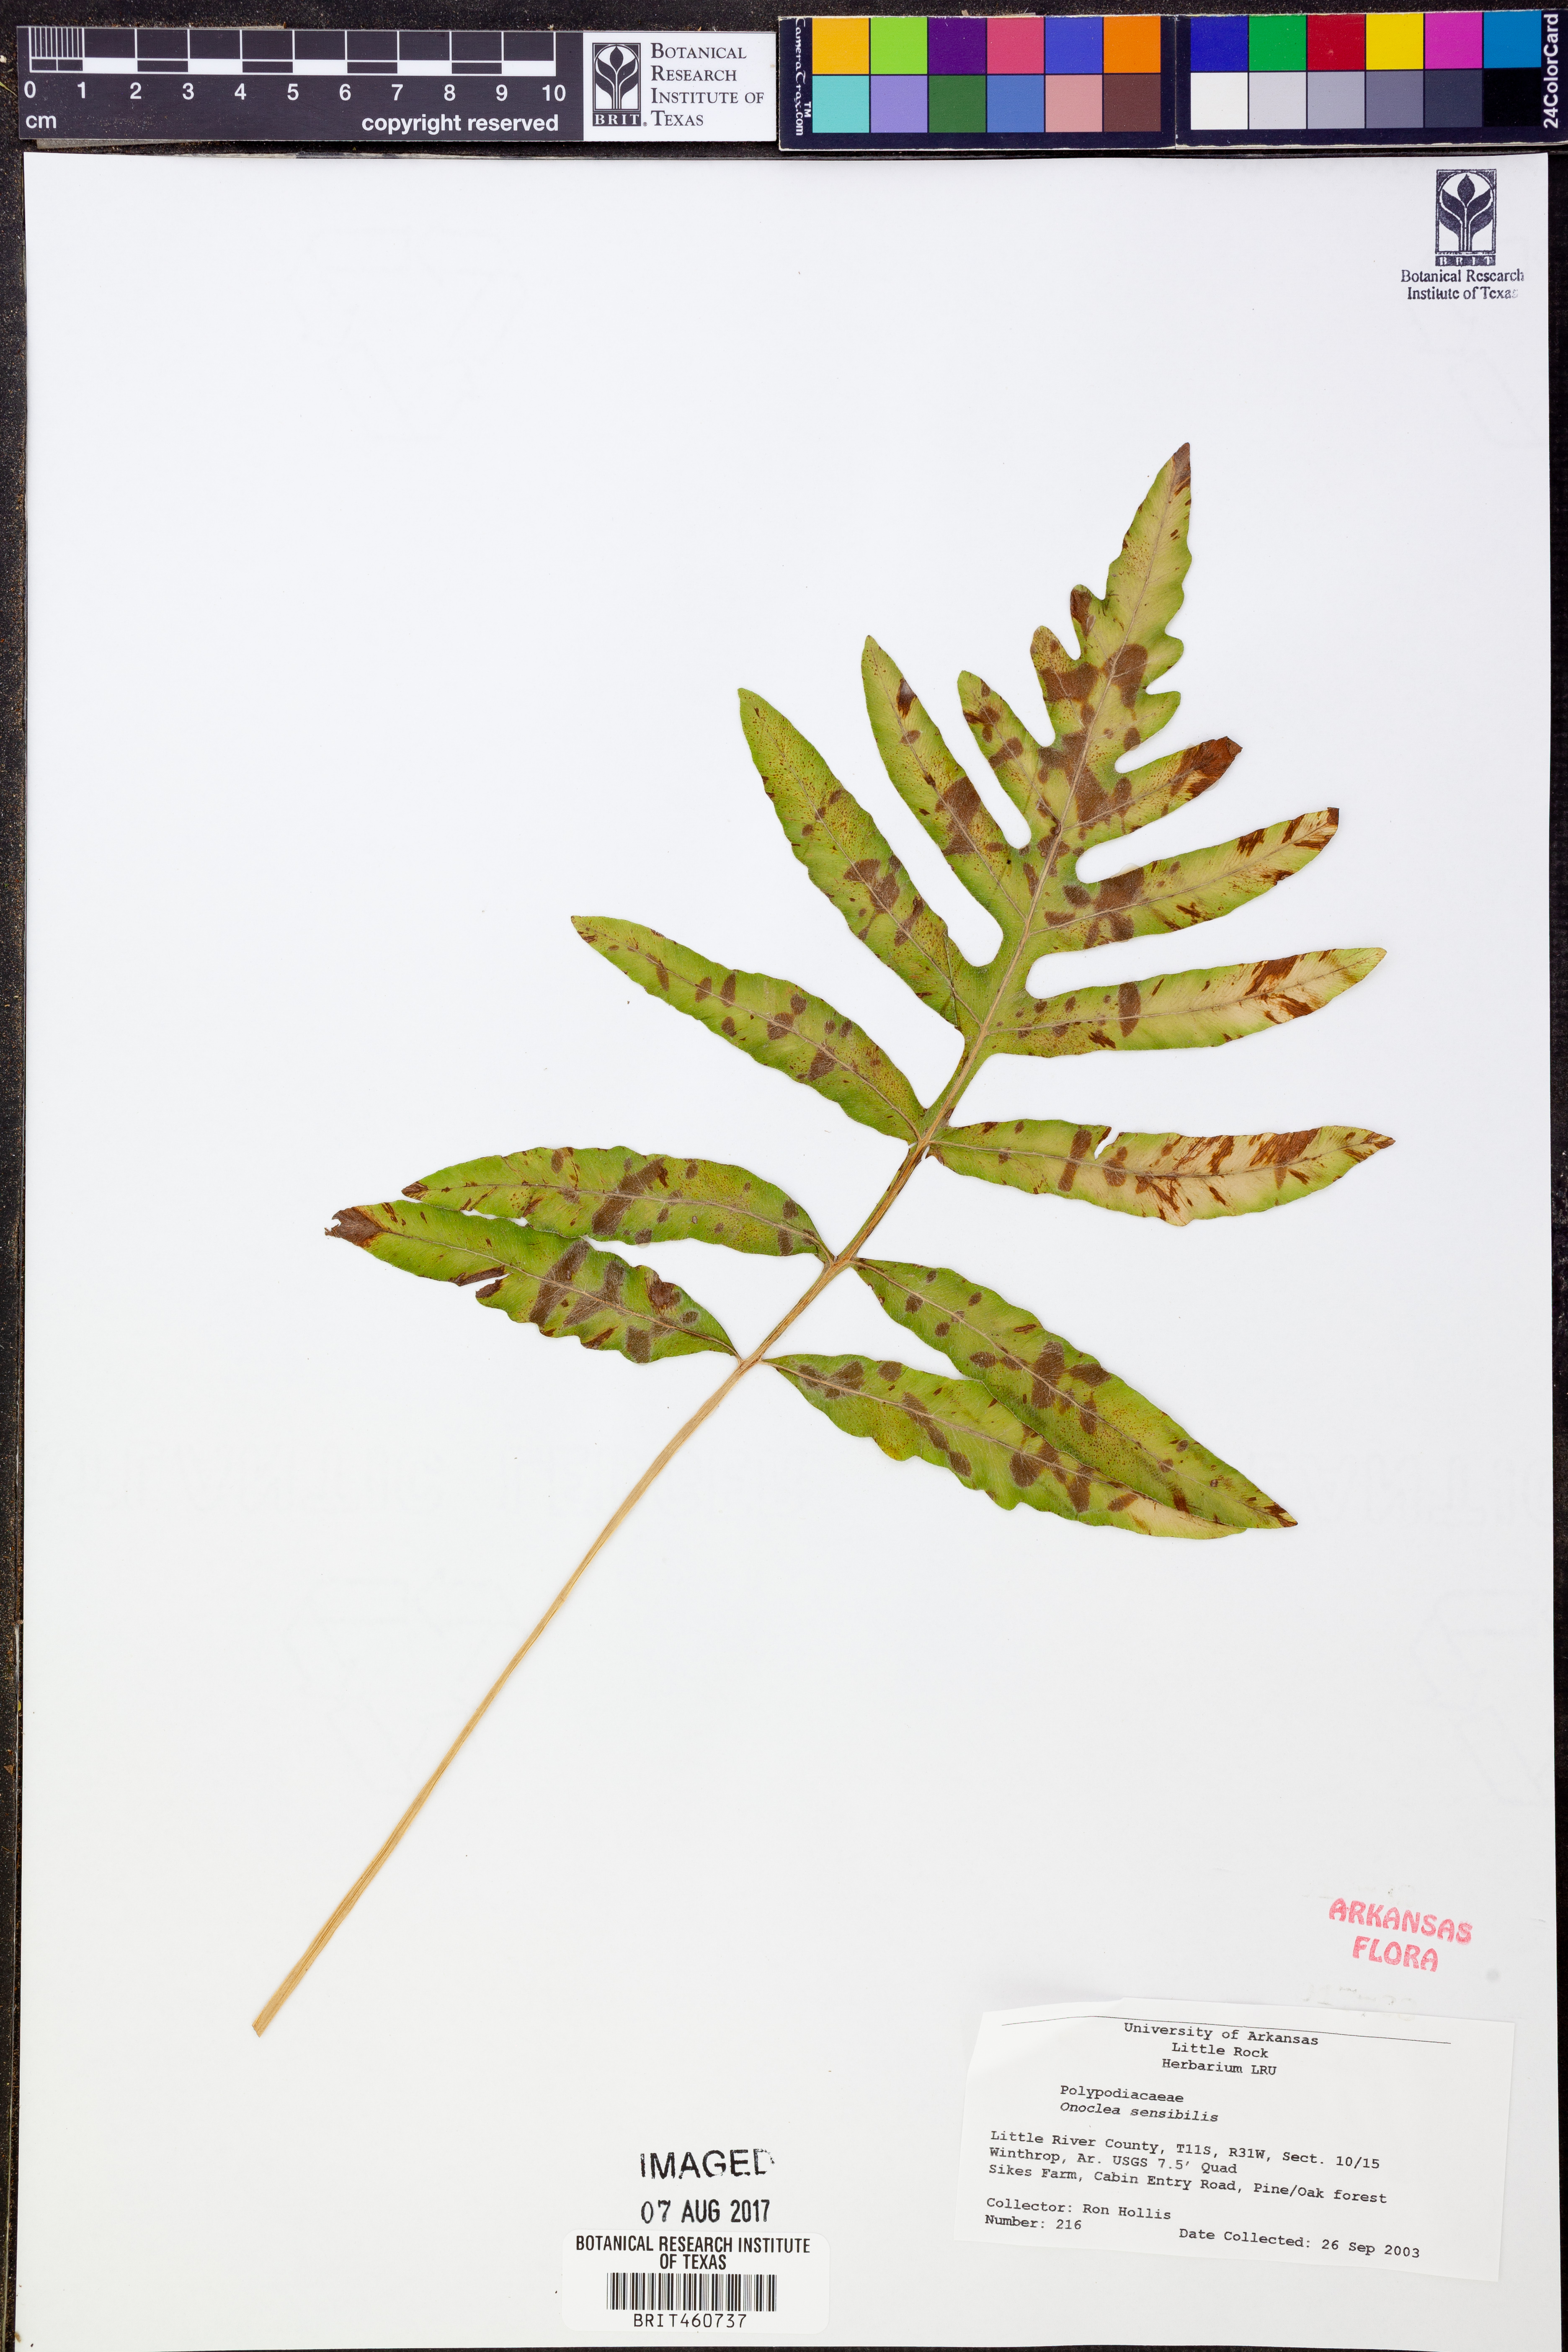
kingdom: Plantae
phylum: Tracheophyta
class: Polypodiopsida
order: Polypodiales
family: Onocleaceae
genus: Onoclea
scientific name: Onoclea sensibilis
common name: Sensitive fern
